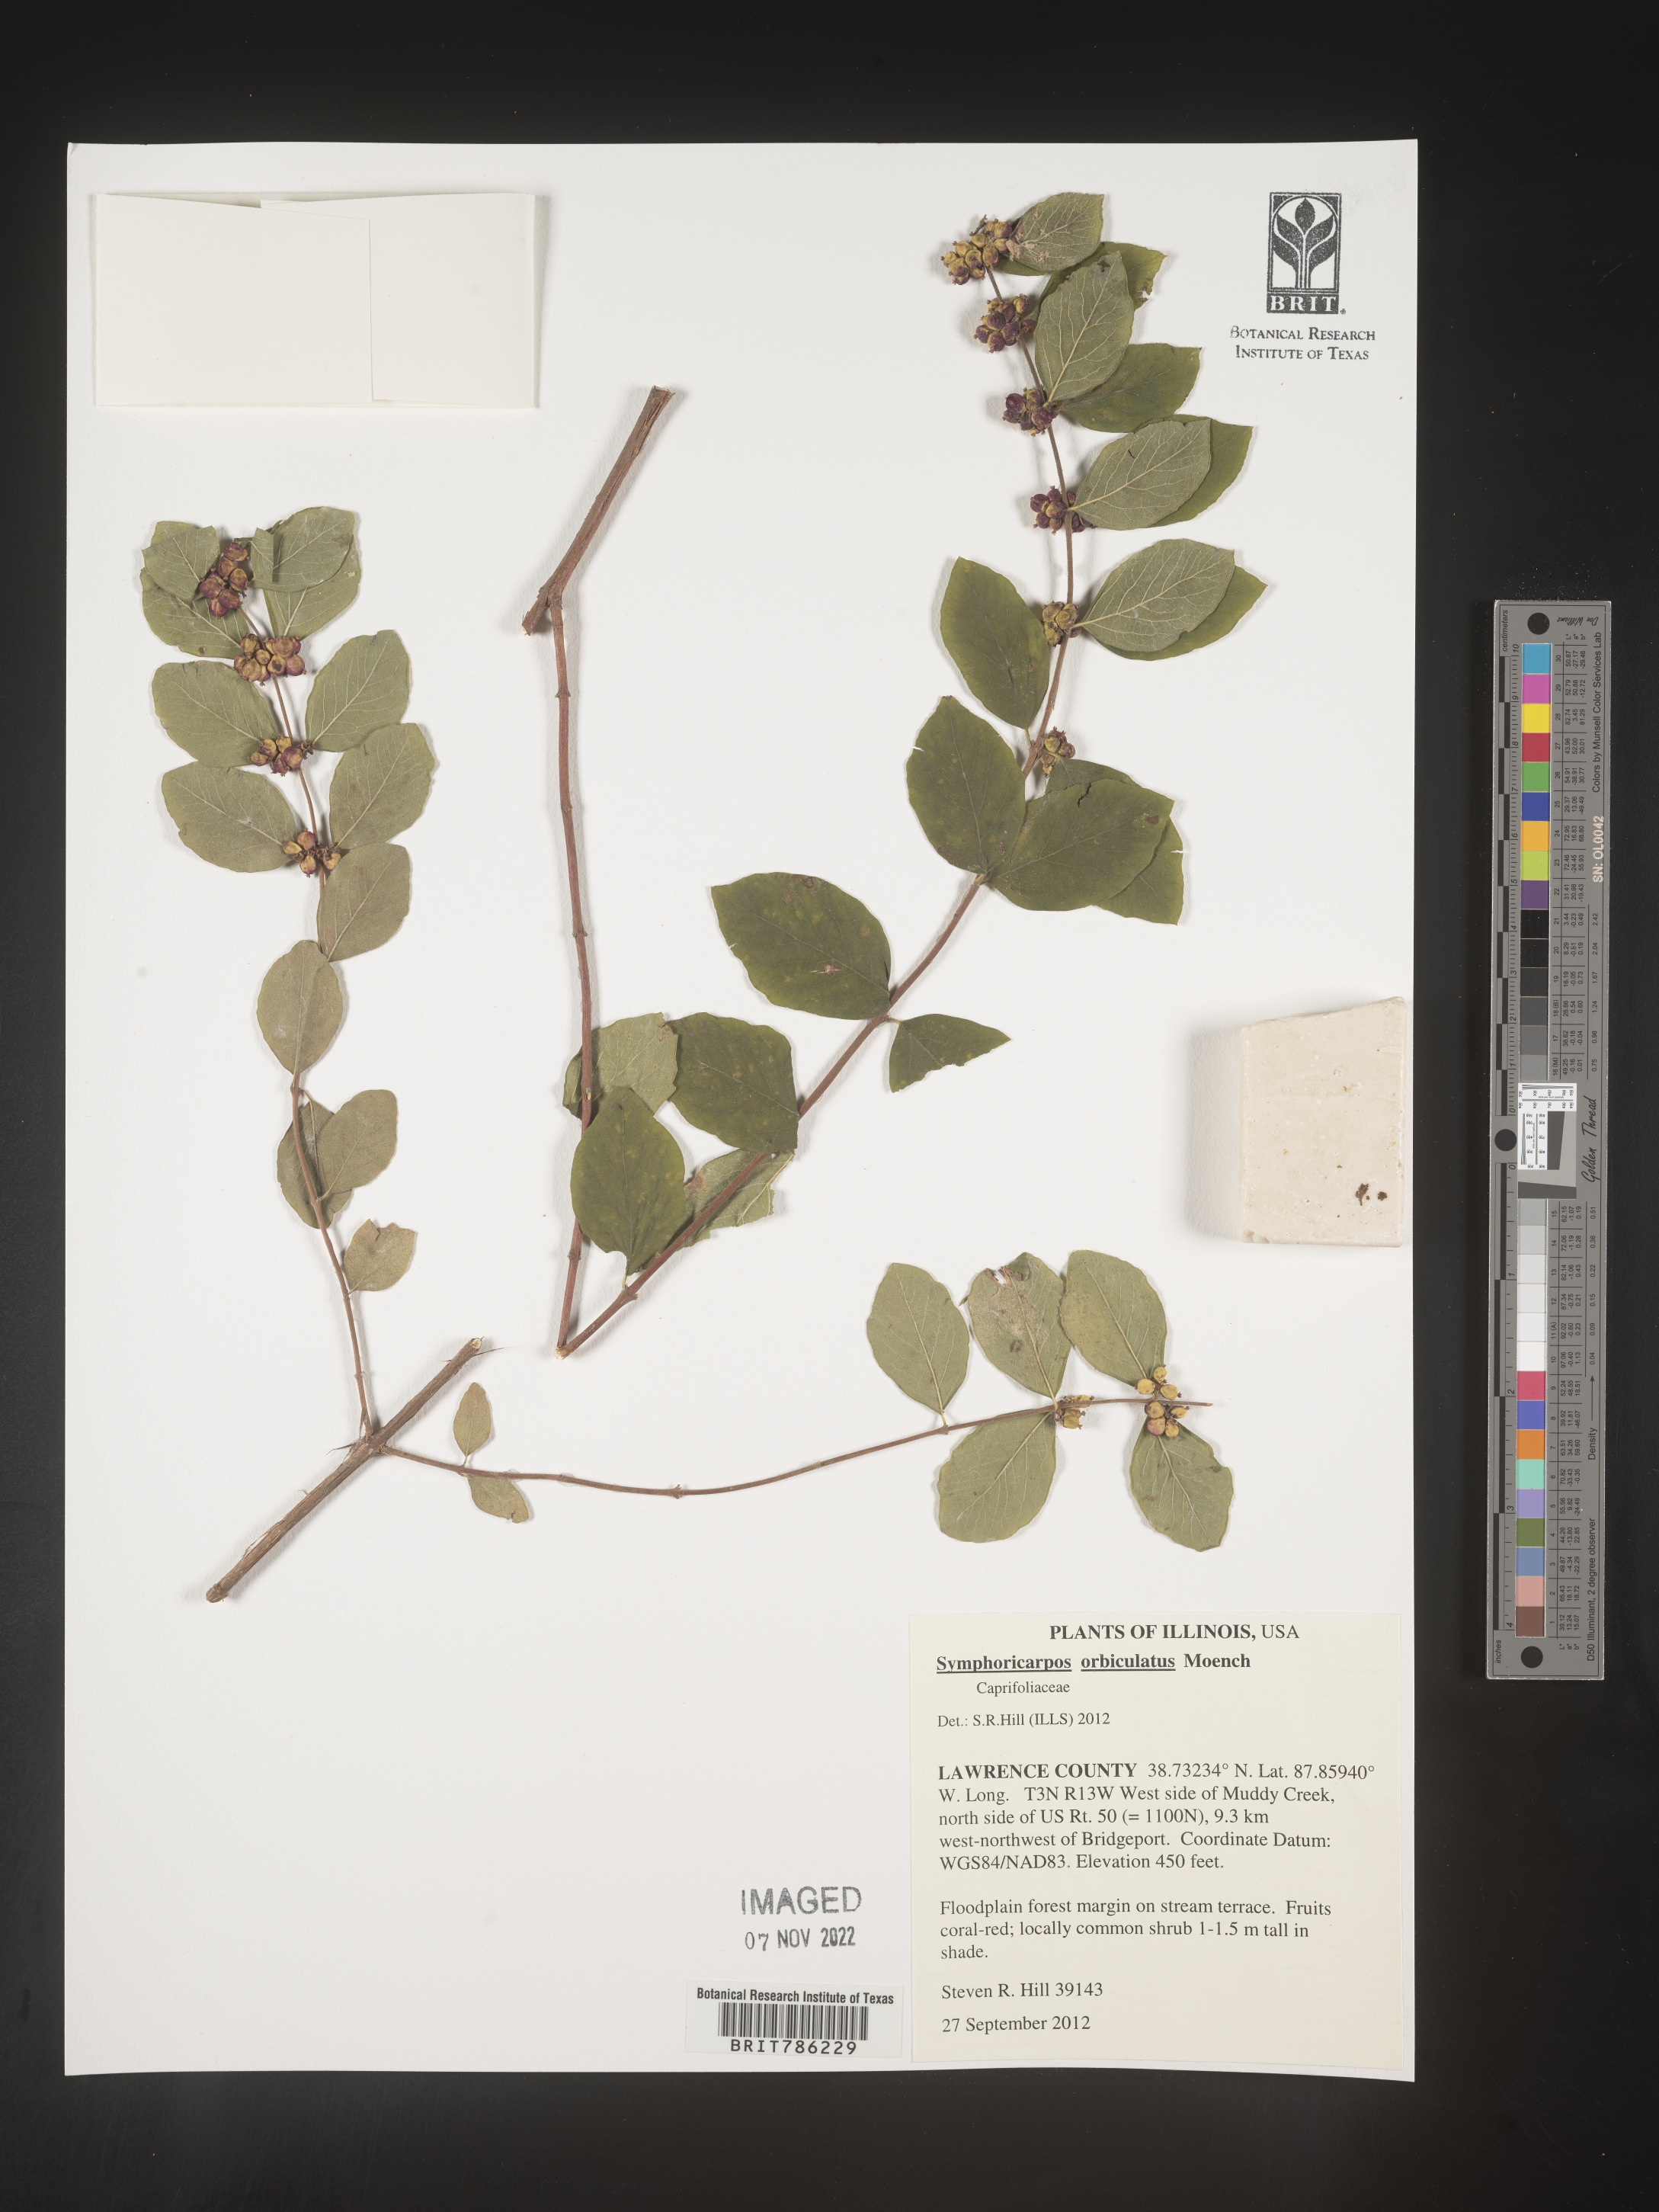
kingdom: Plantae
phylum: Tracheophyta
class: Magnoliopsida
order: Dipsacales
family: Caprifoliaceae
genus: Symphoricarpos
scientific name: Symphoricarpos orbiculatus
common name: Coralberry
